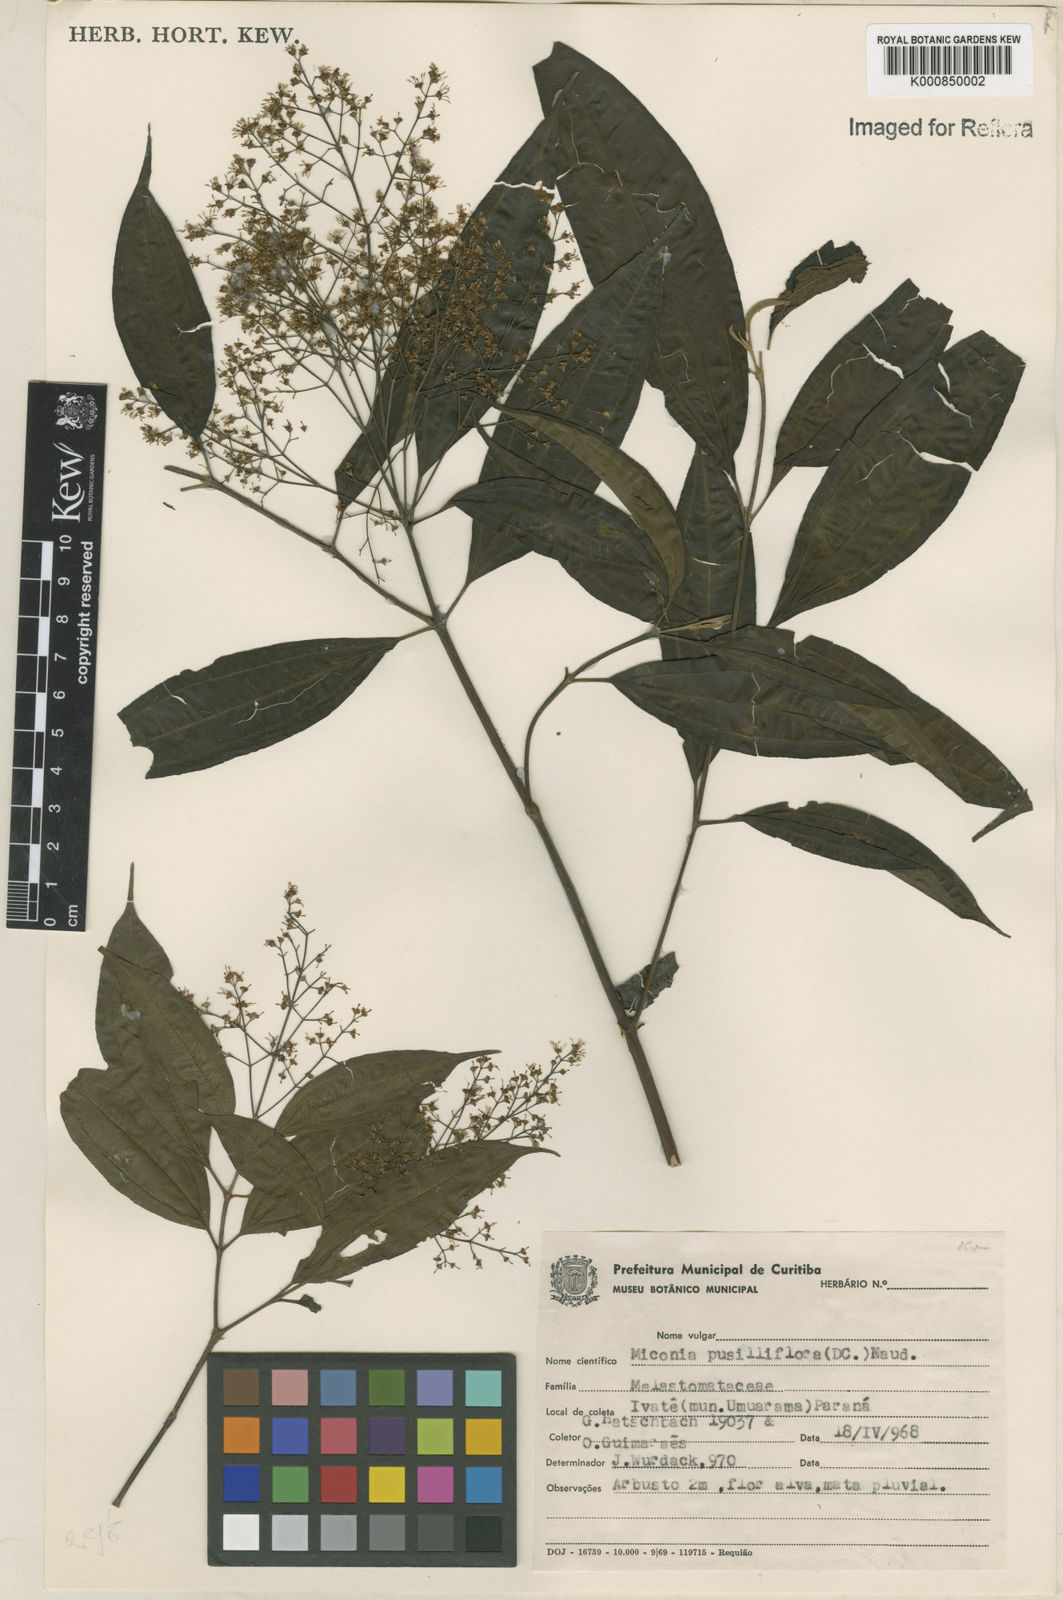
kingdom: Plantae
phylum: Tracheophyta
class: Magnoliopsida
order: Myrtales
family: Melastomataceae
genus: Miconia
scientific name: Miconia pusilliflora
